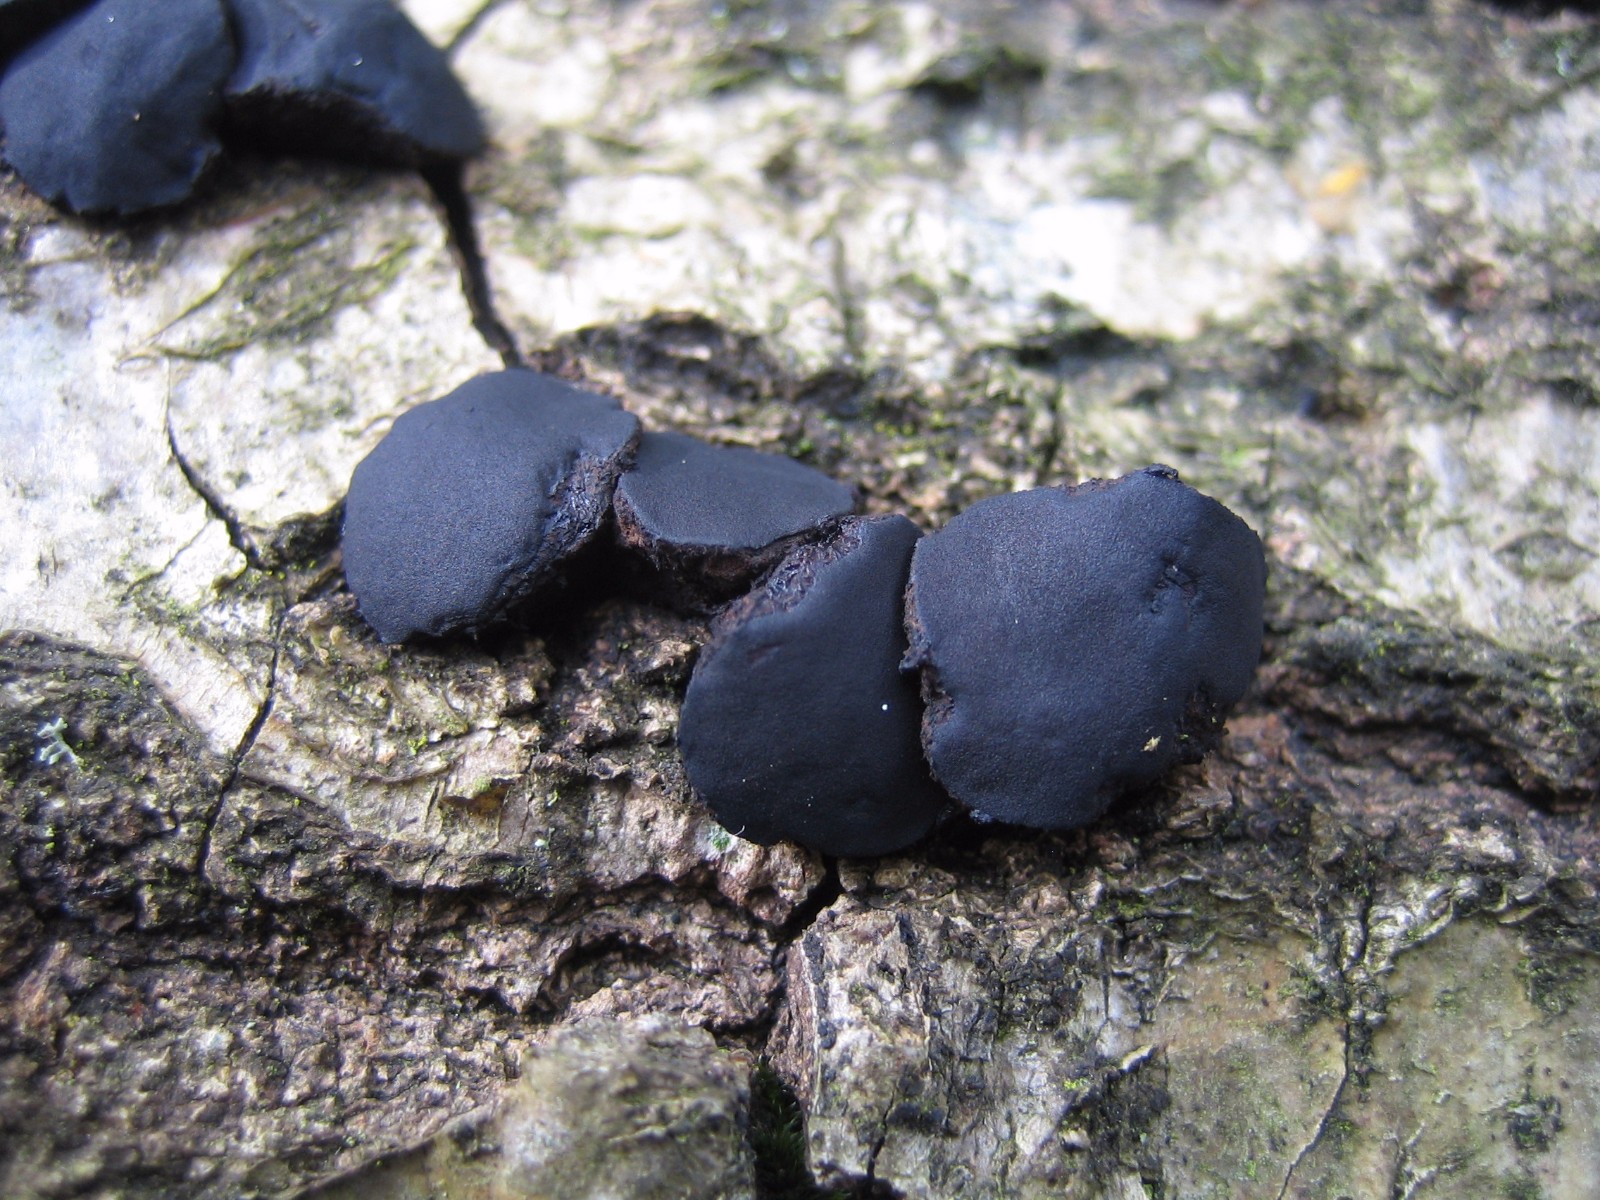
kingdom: Fungi
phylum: Ascomycota
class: Leotiomycetes
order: Phacidiales
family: Phacidiaceae
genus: Bulgaria
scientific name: Bulgaria inquinans
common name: afsmittende topsvamp
